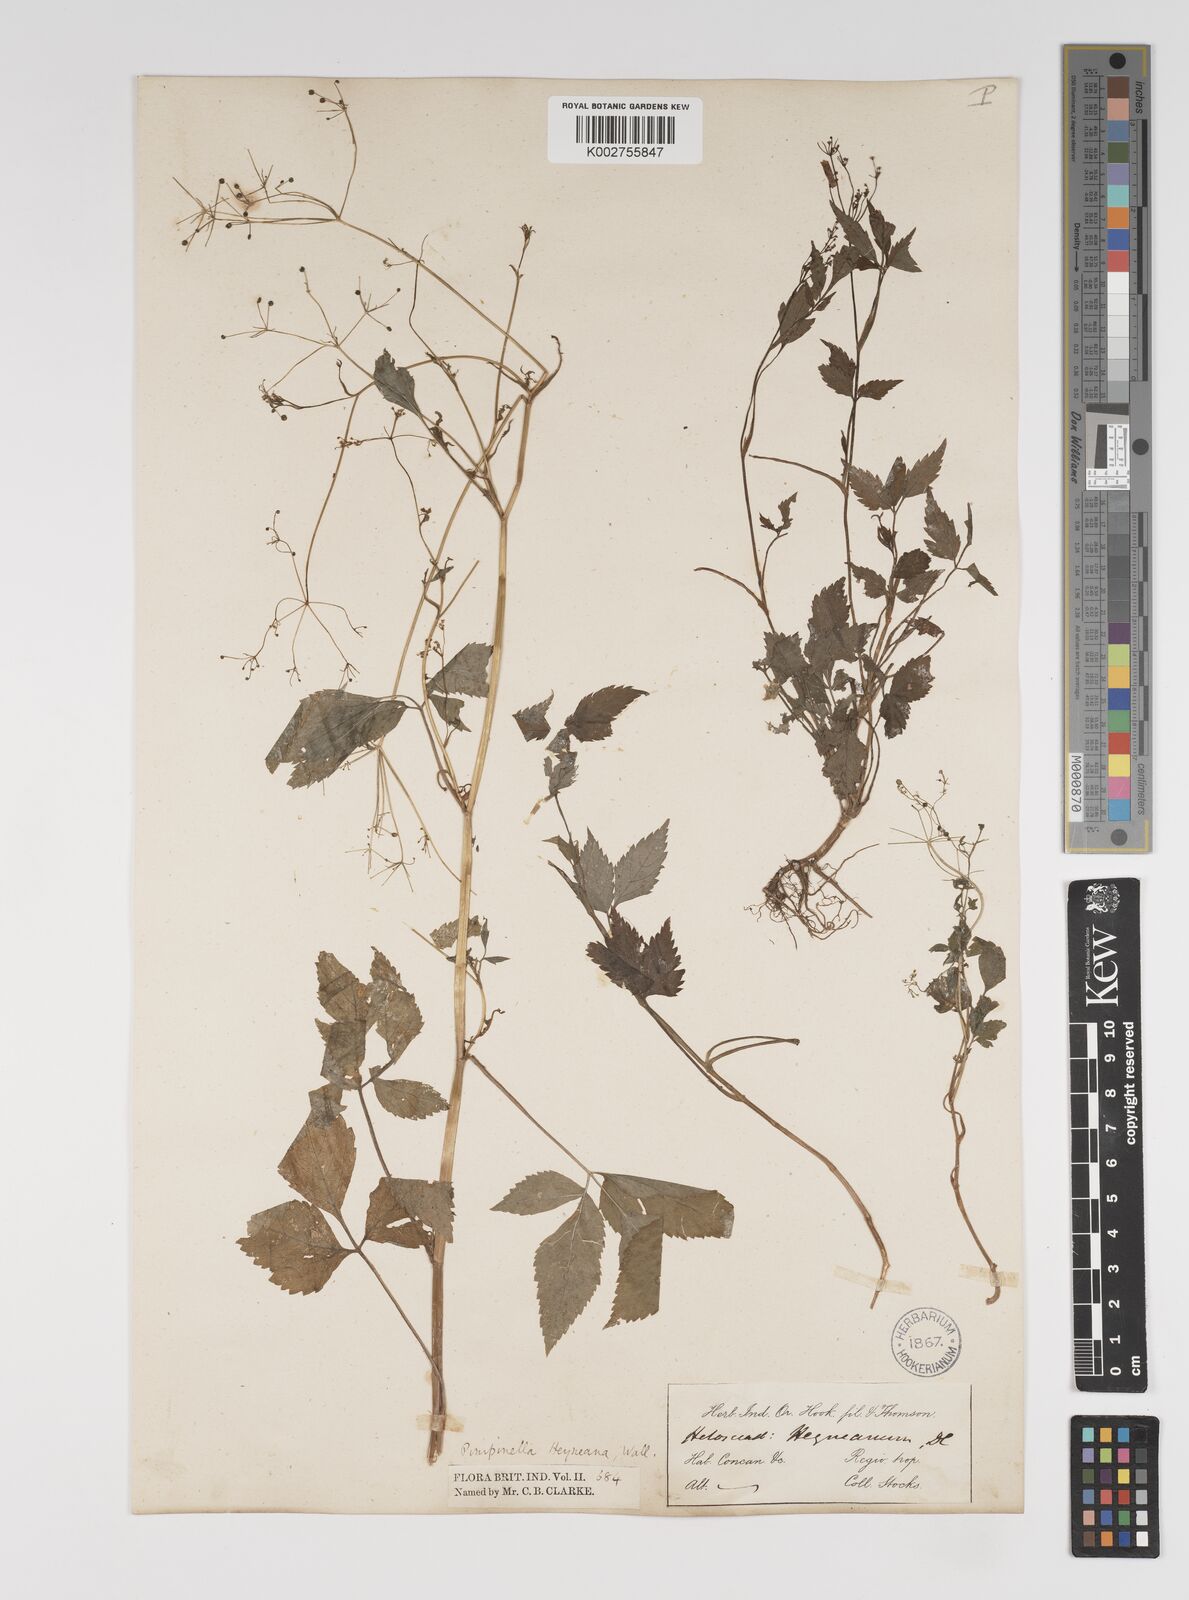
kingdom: Plantae
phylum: Tracheophyta
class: Magnoliopsida
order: Apiales
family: Apiaceae
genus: Pimpinella
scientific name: Pimpinella heyneana
